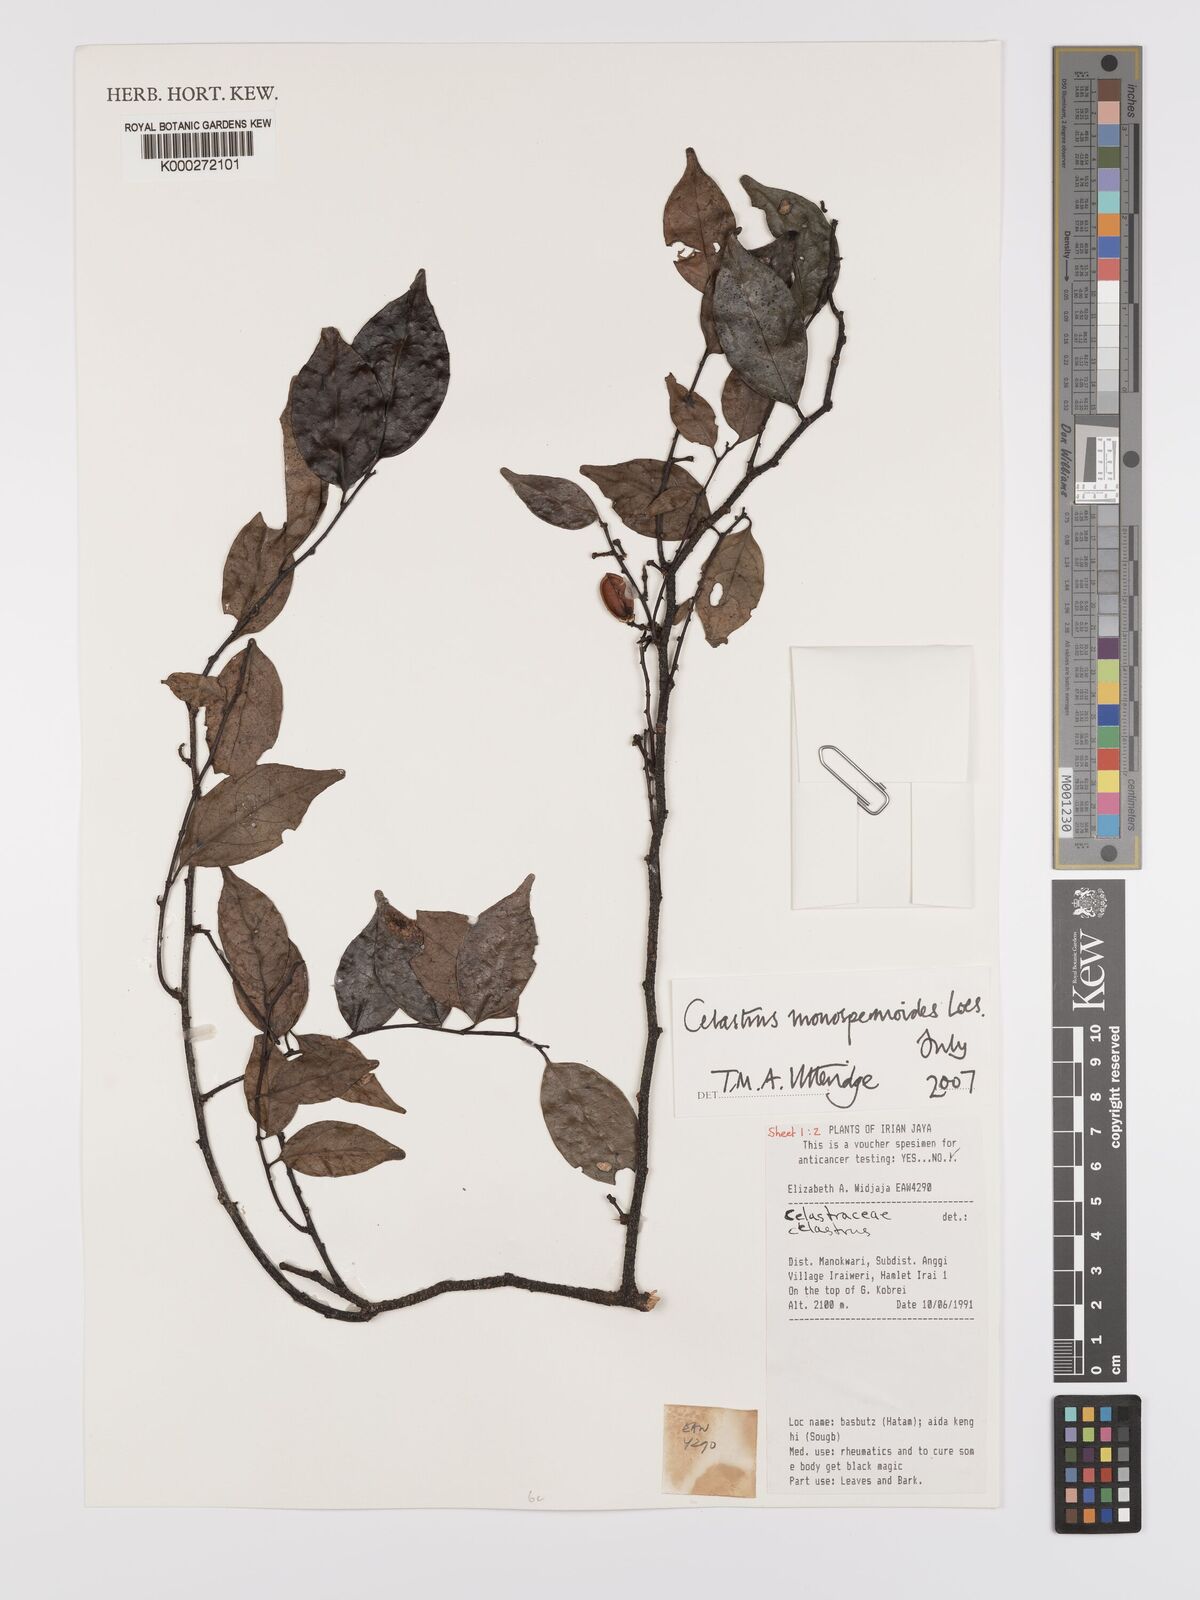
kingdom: Plantae
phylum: Tracheophyta
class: Magnoliopsida
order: Celastrales
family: Celastraceae
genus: Celastrus
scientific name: Celastrus monospermoides
